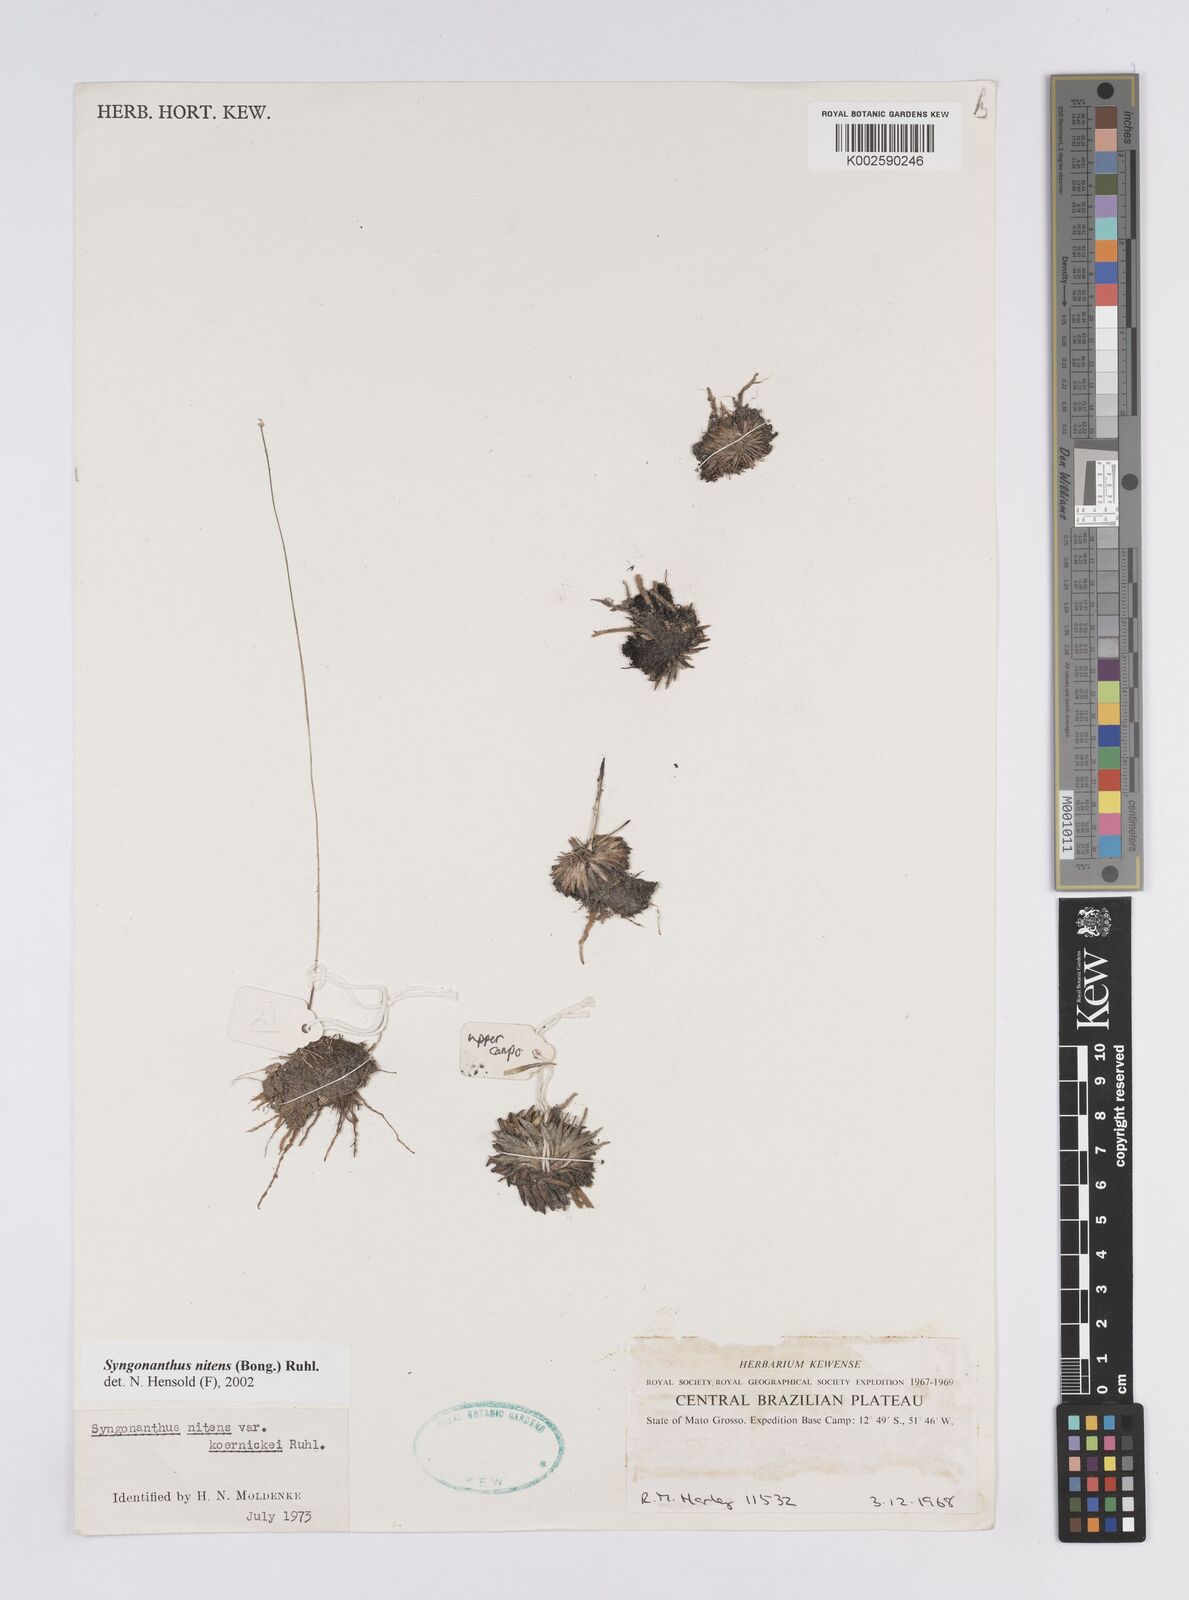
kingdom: Plantae
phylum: Tracheophyta
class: Liliopsida
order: Poales
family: Eriocaulaceae
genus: Syngonanthus
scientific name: Syngonanthus nitens
